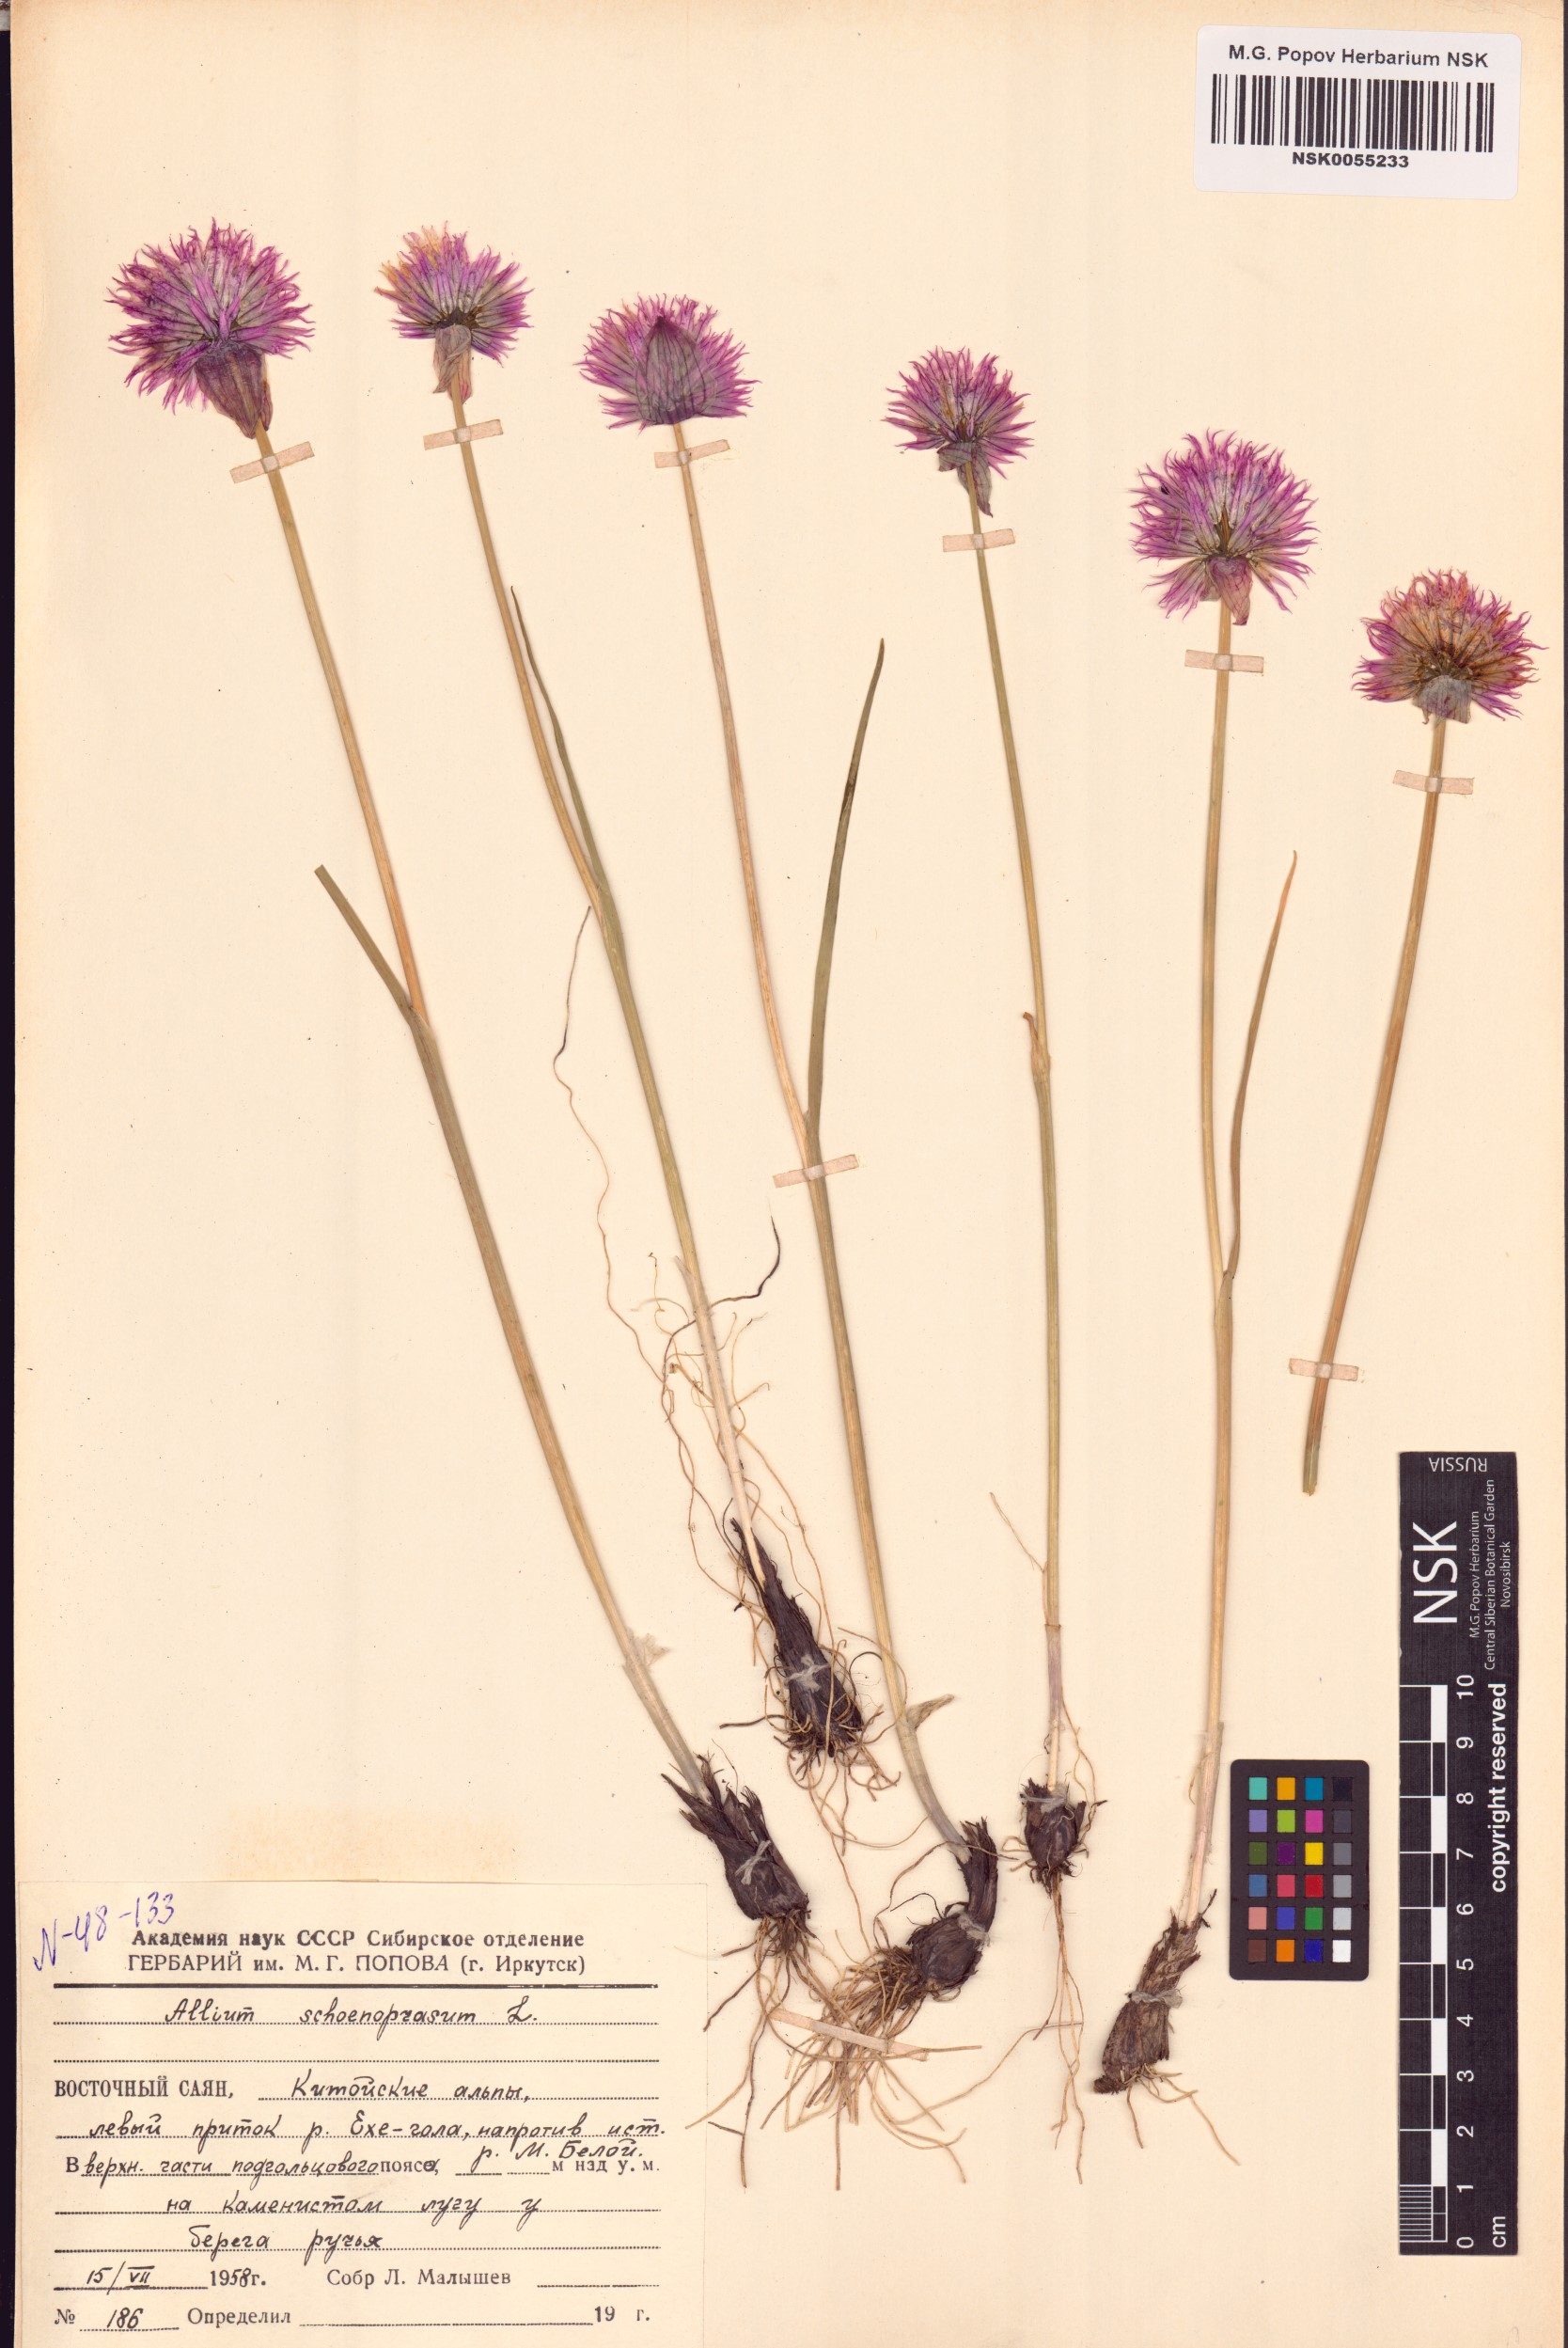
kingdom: Plantae
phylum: Tracheophyta
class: Liliopsida
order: Asparagales
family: Amaryllidaceae
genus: Allium
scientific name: Allium schoenoprasum
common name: Chives
